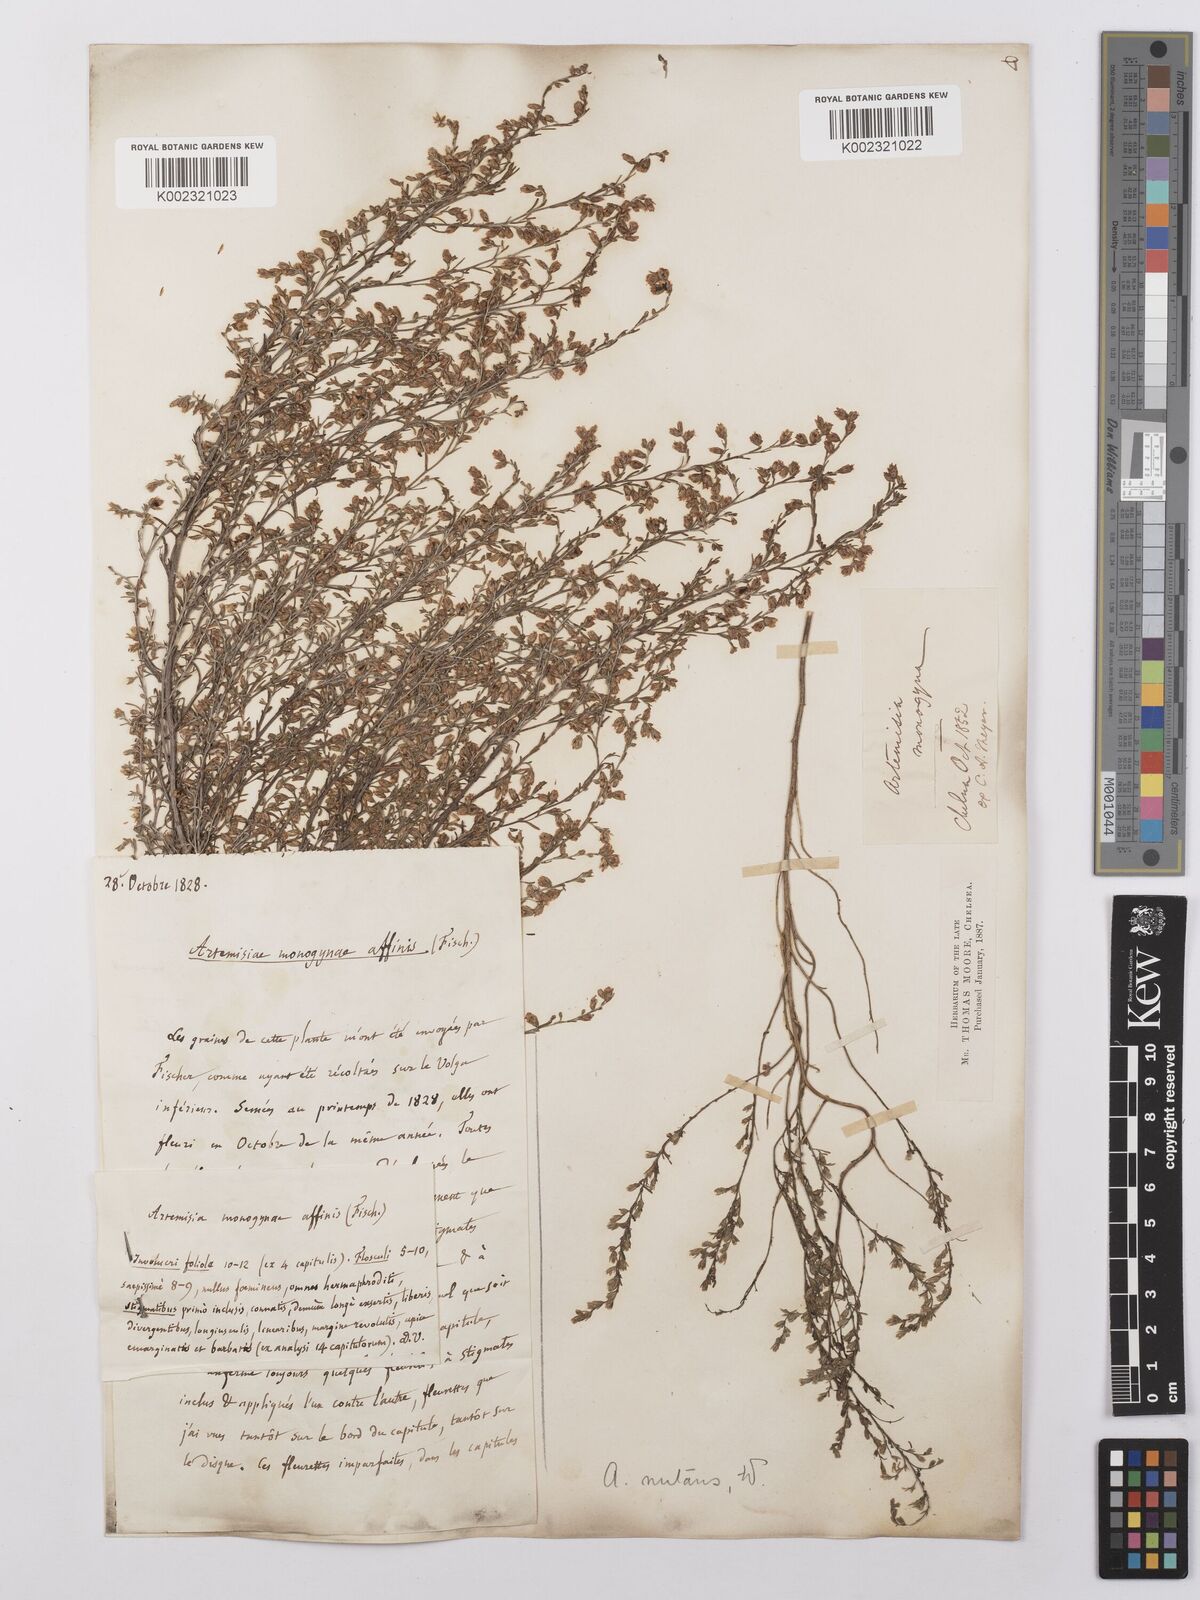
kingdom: Plantae
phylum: Tracheophyta
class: Magnoliopsida
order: Asterales
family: Asteraceae
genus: Artemisia
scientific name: Artemisia santonicum
